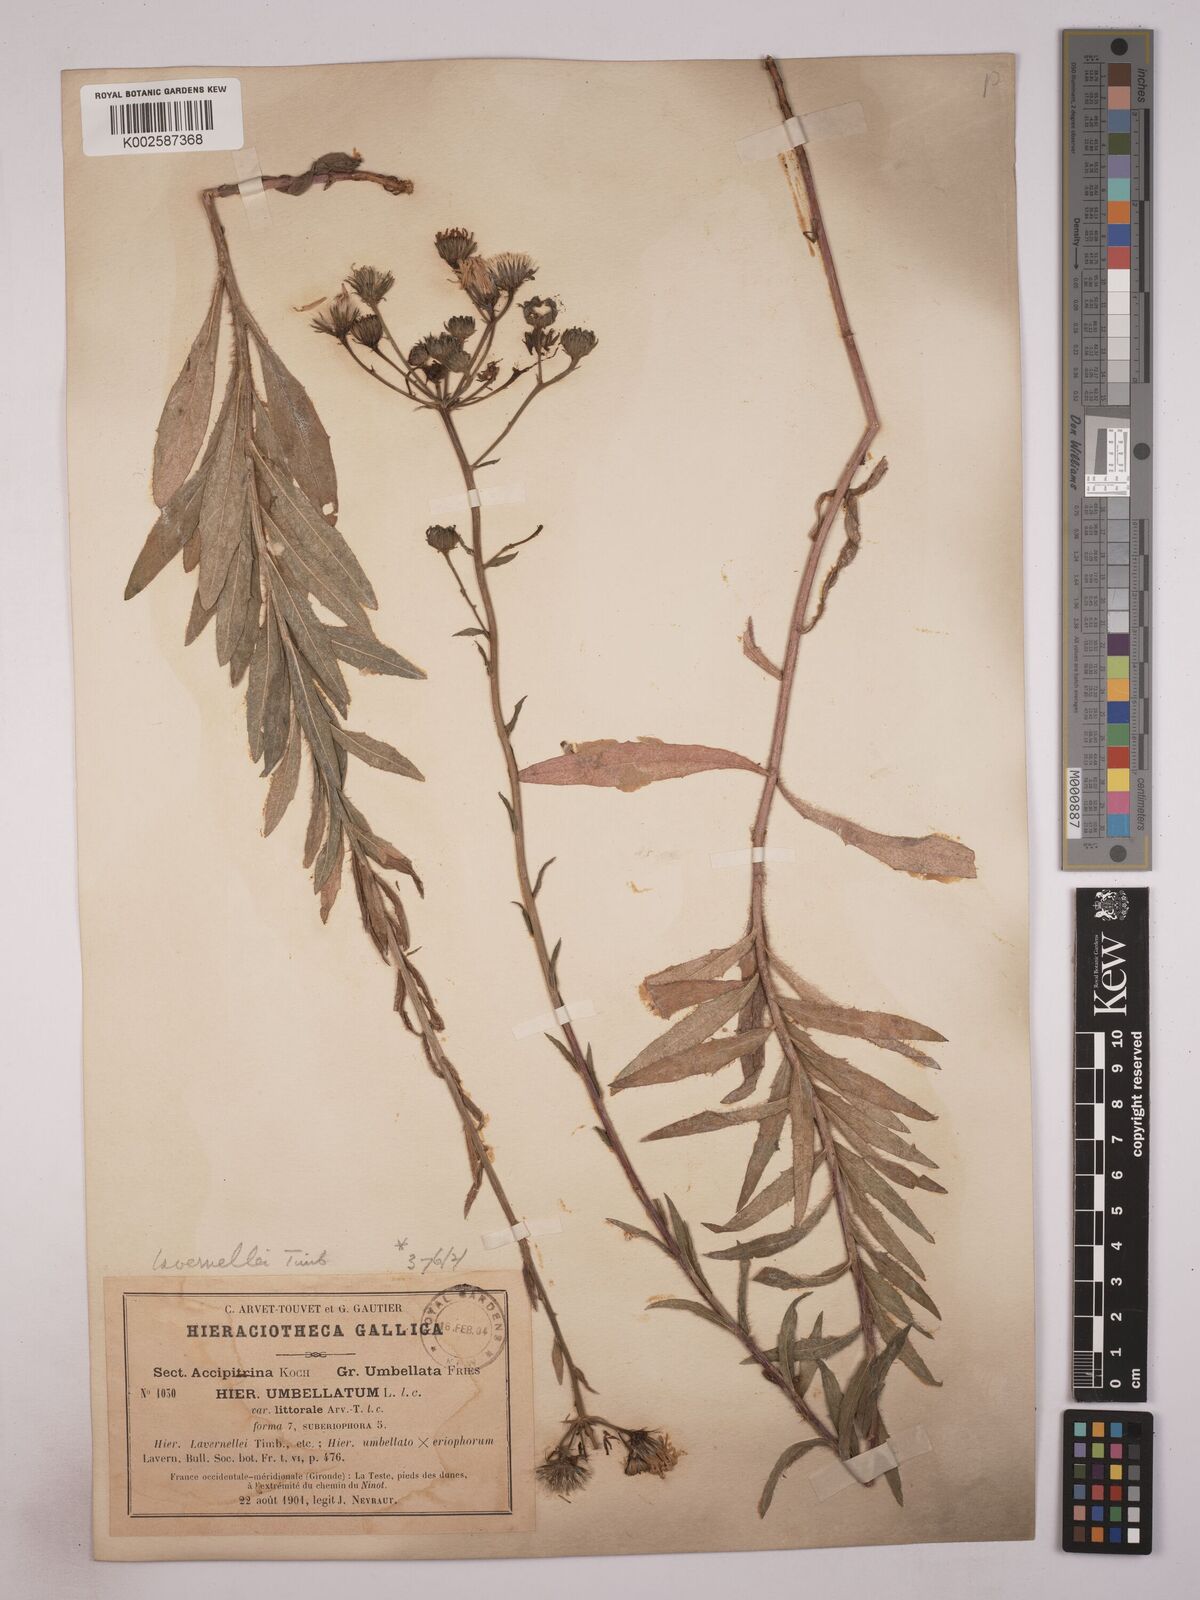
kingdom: Plantae
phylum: Tracheophyta
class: Magnoliopsida
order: Asterales
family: Asteraceae
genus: Hieracium
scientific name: Hieracium
